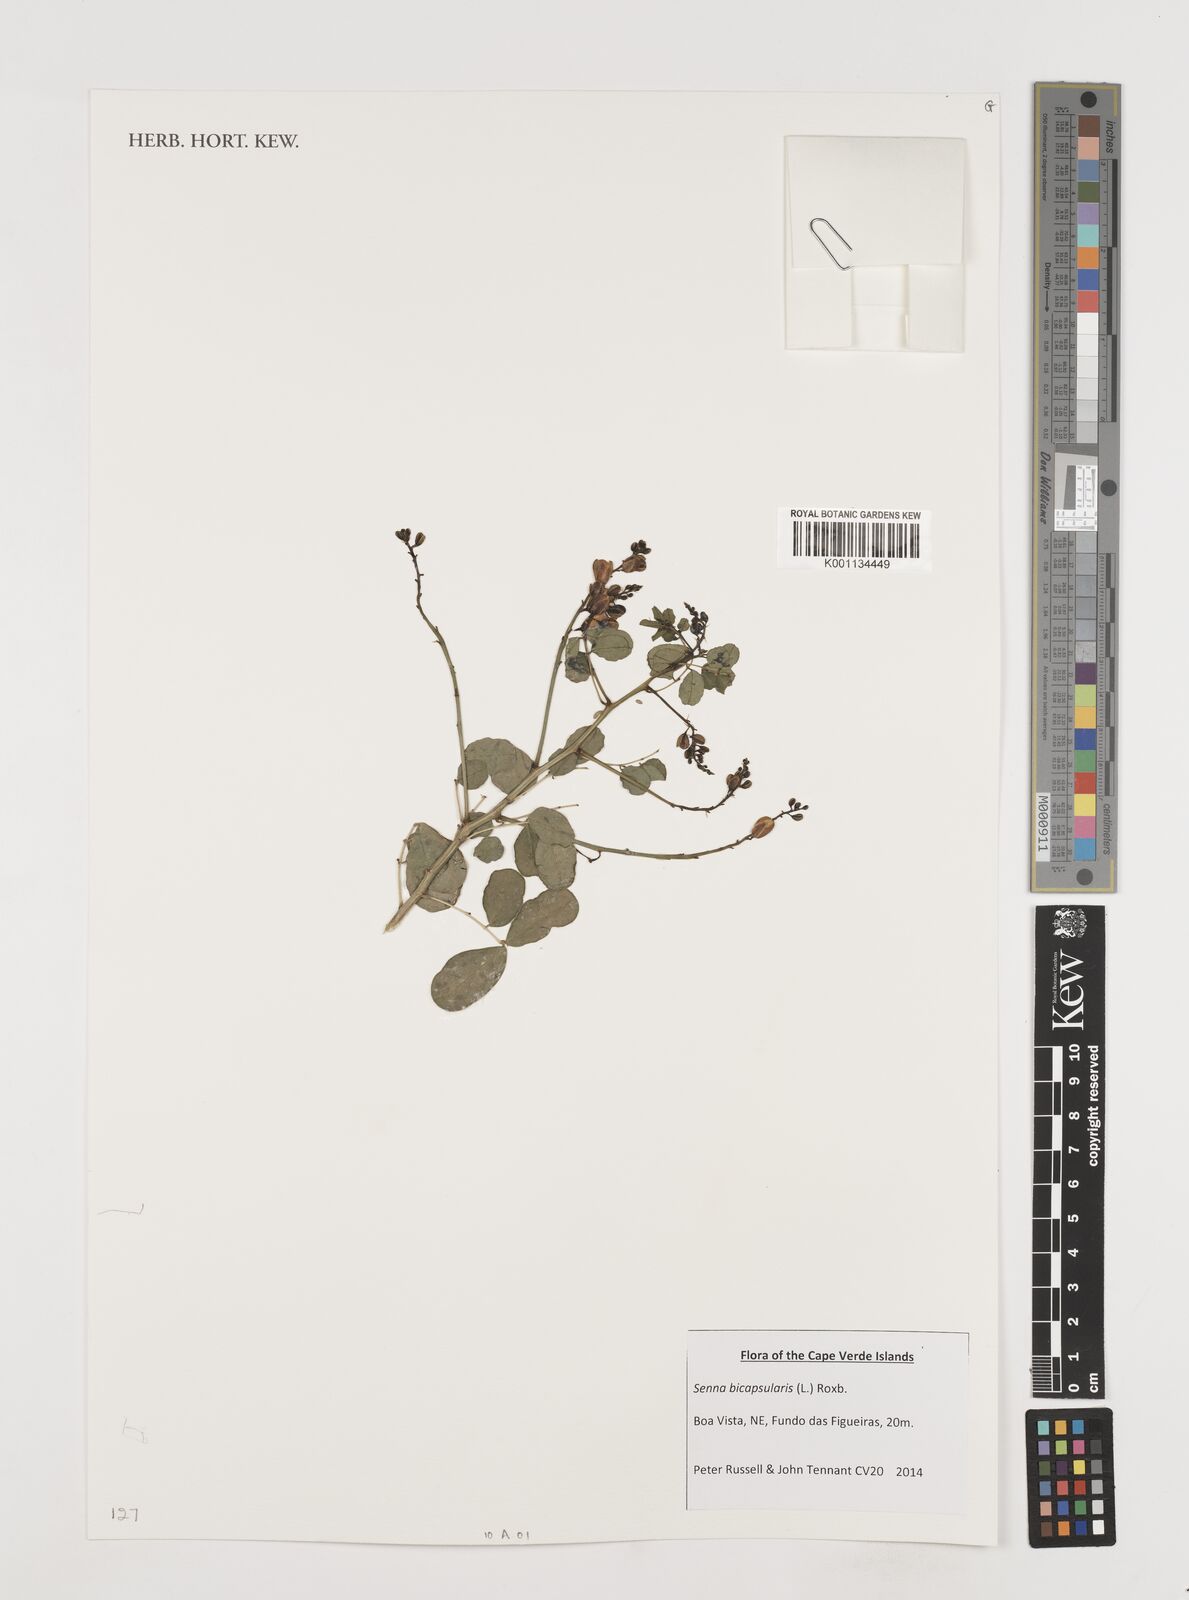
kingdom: Plantae
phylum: Tracheophyta
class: Magnoliopsida
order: Fabales
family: Fabaceae
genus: Senna
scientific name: Senna bicapsularis
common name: Christmasbush
